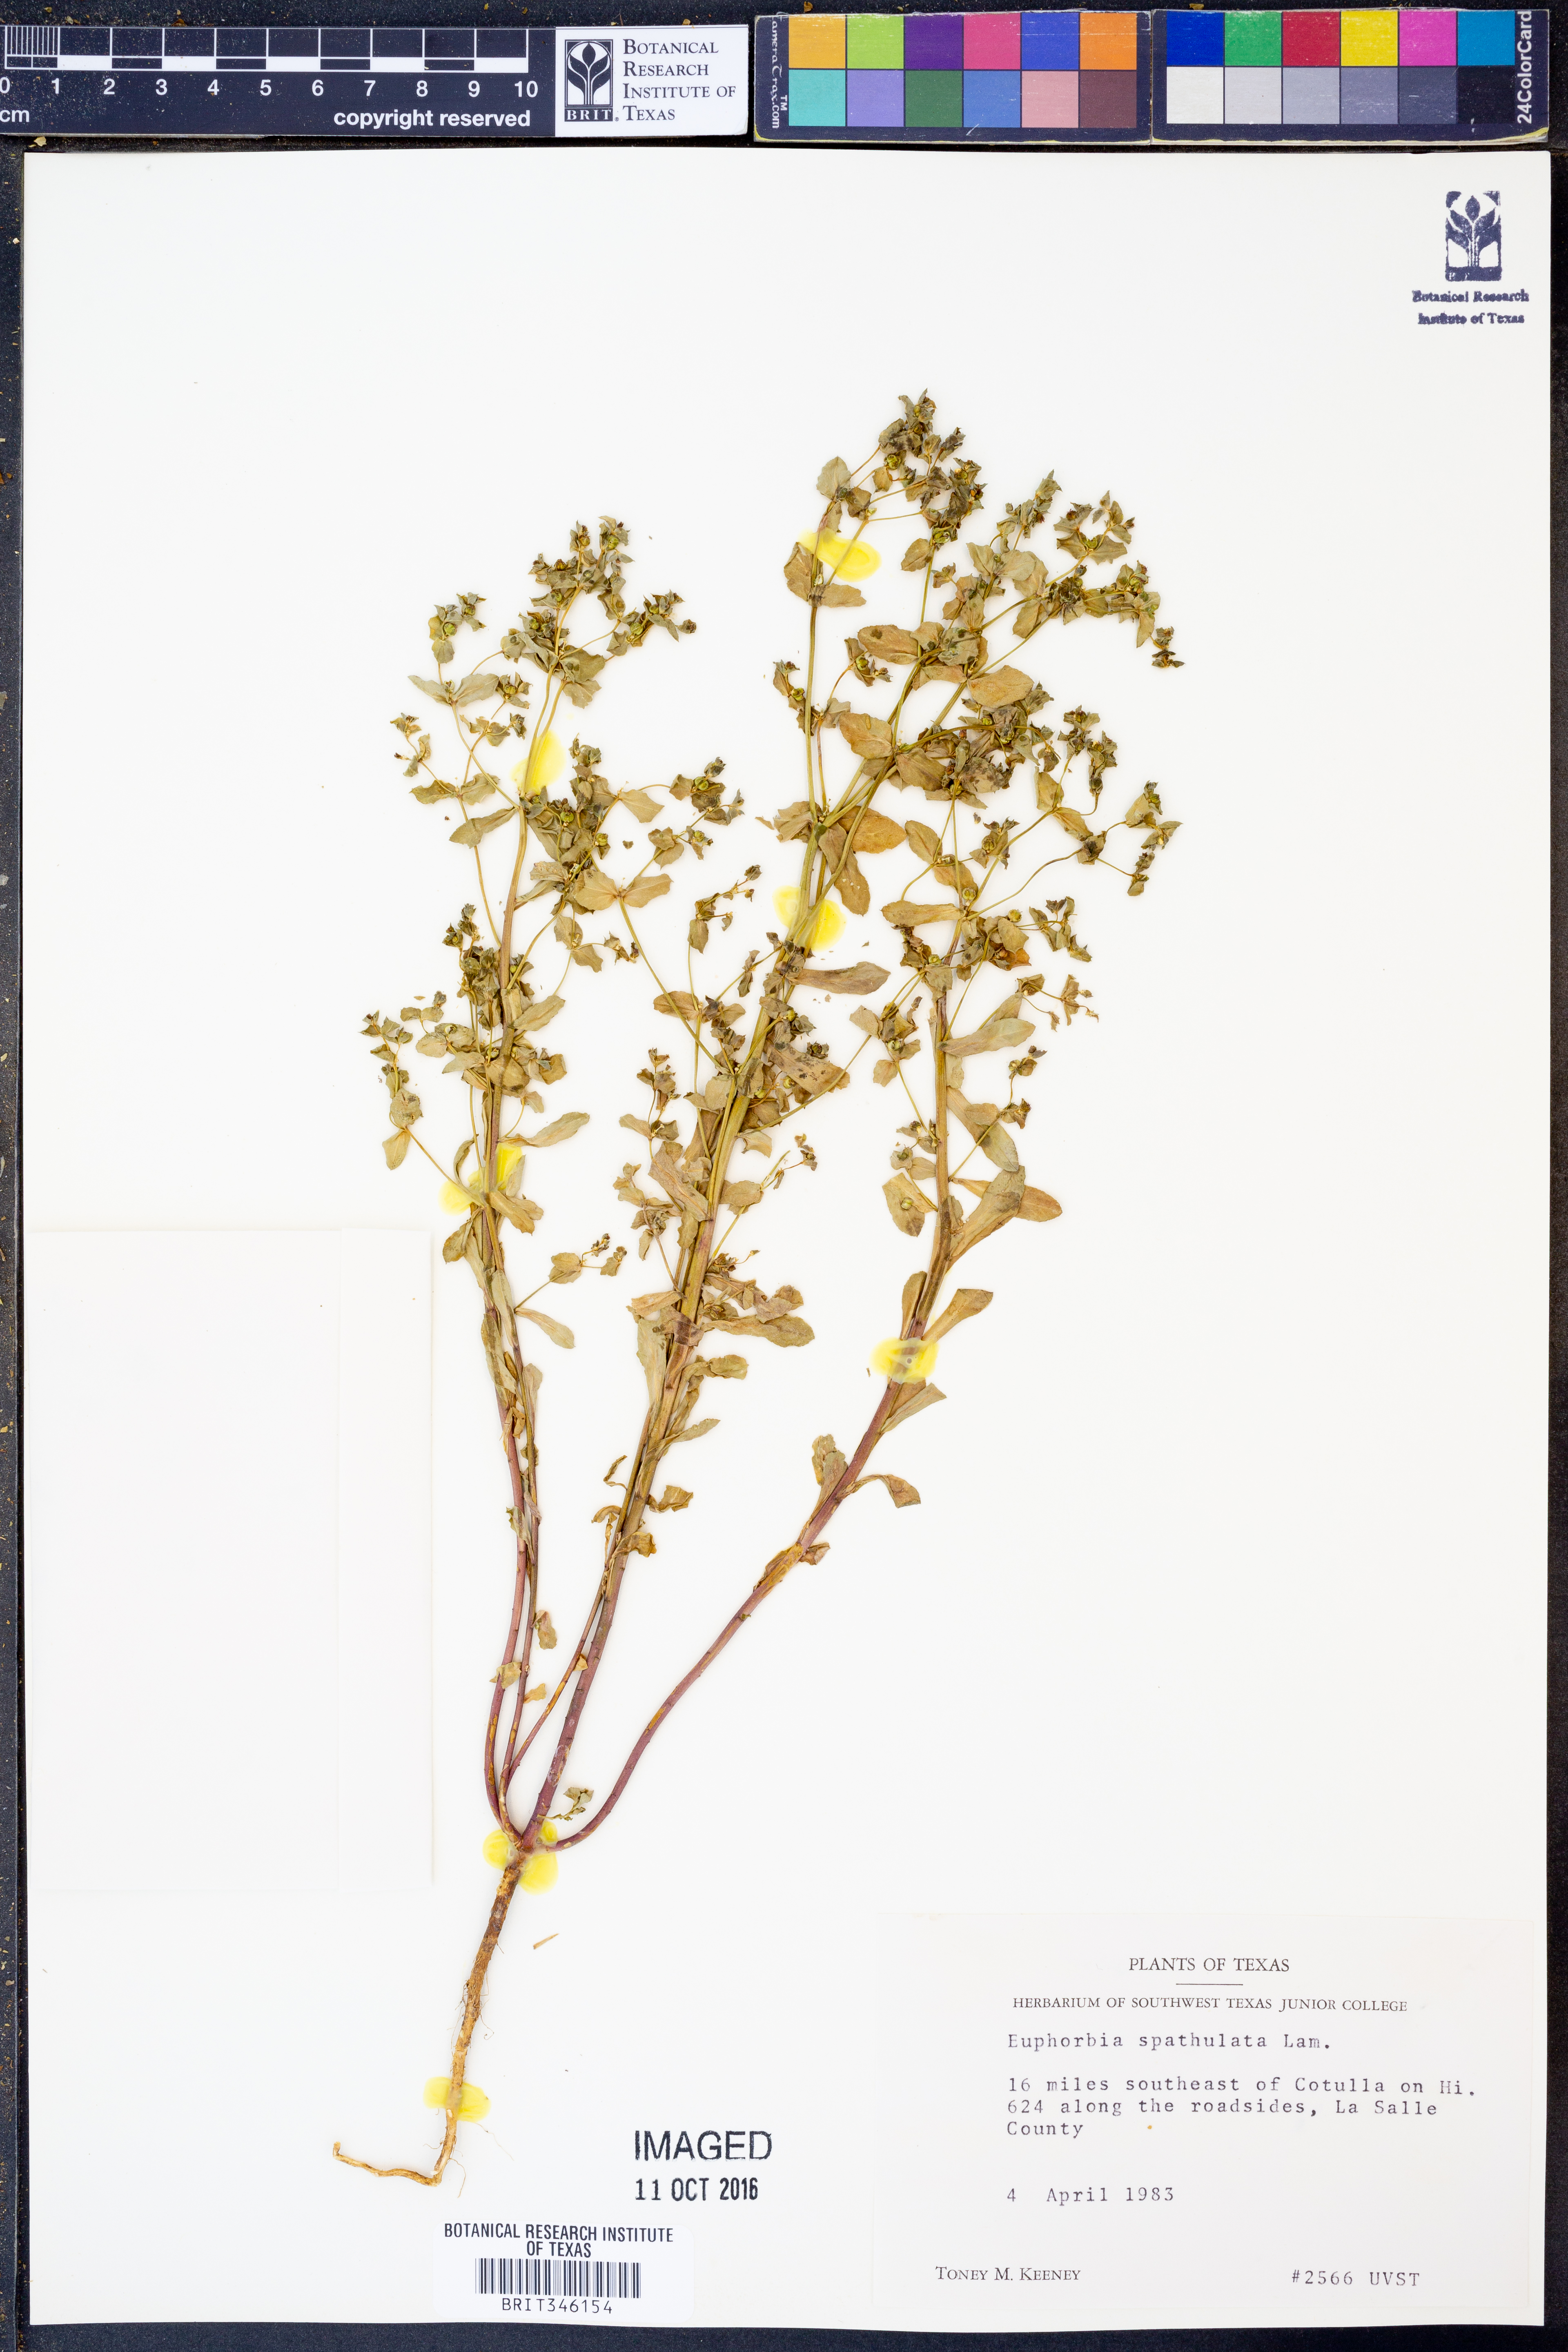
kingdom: Plantae
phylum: Tracheophyta
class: Magnoliopsida
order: Malpighiales
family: Euphorbiaceae
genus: Euphorbia
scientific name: Euphorbia spathulata
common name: Blunt spurge
